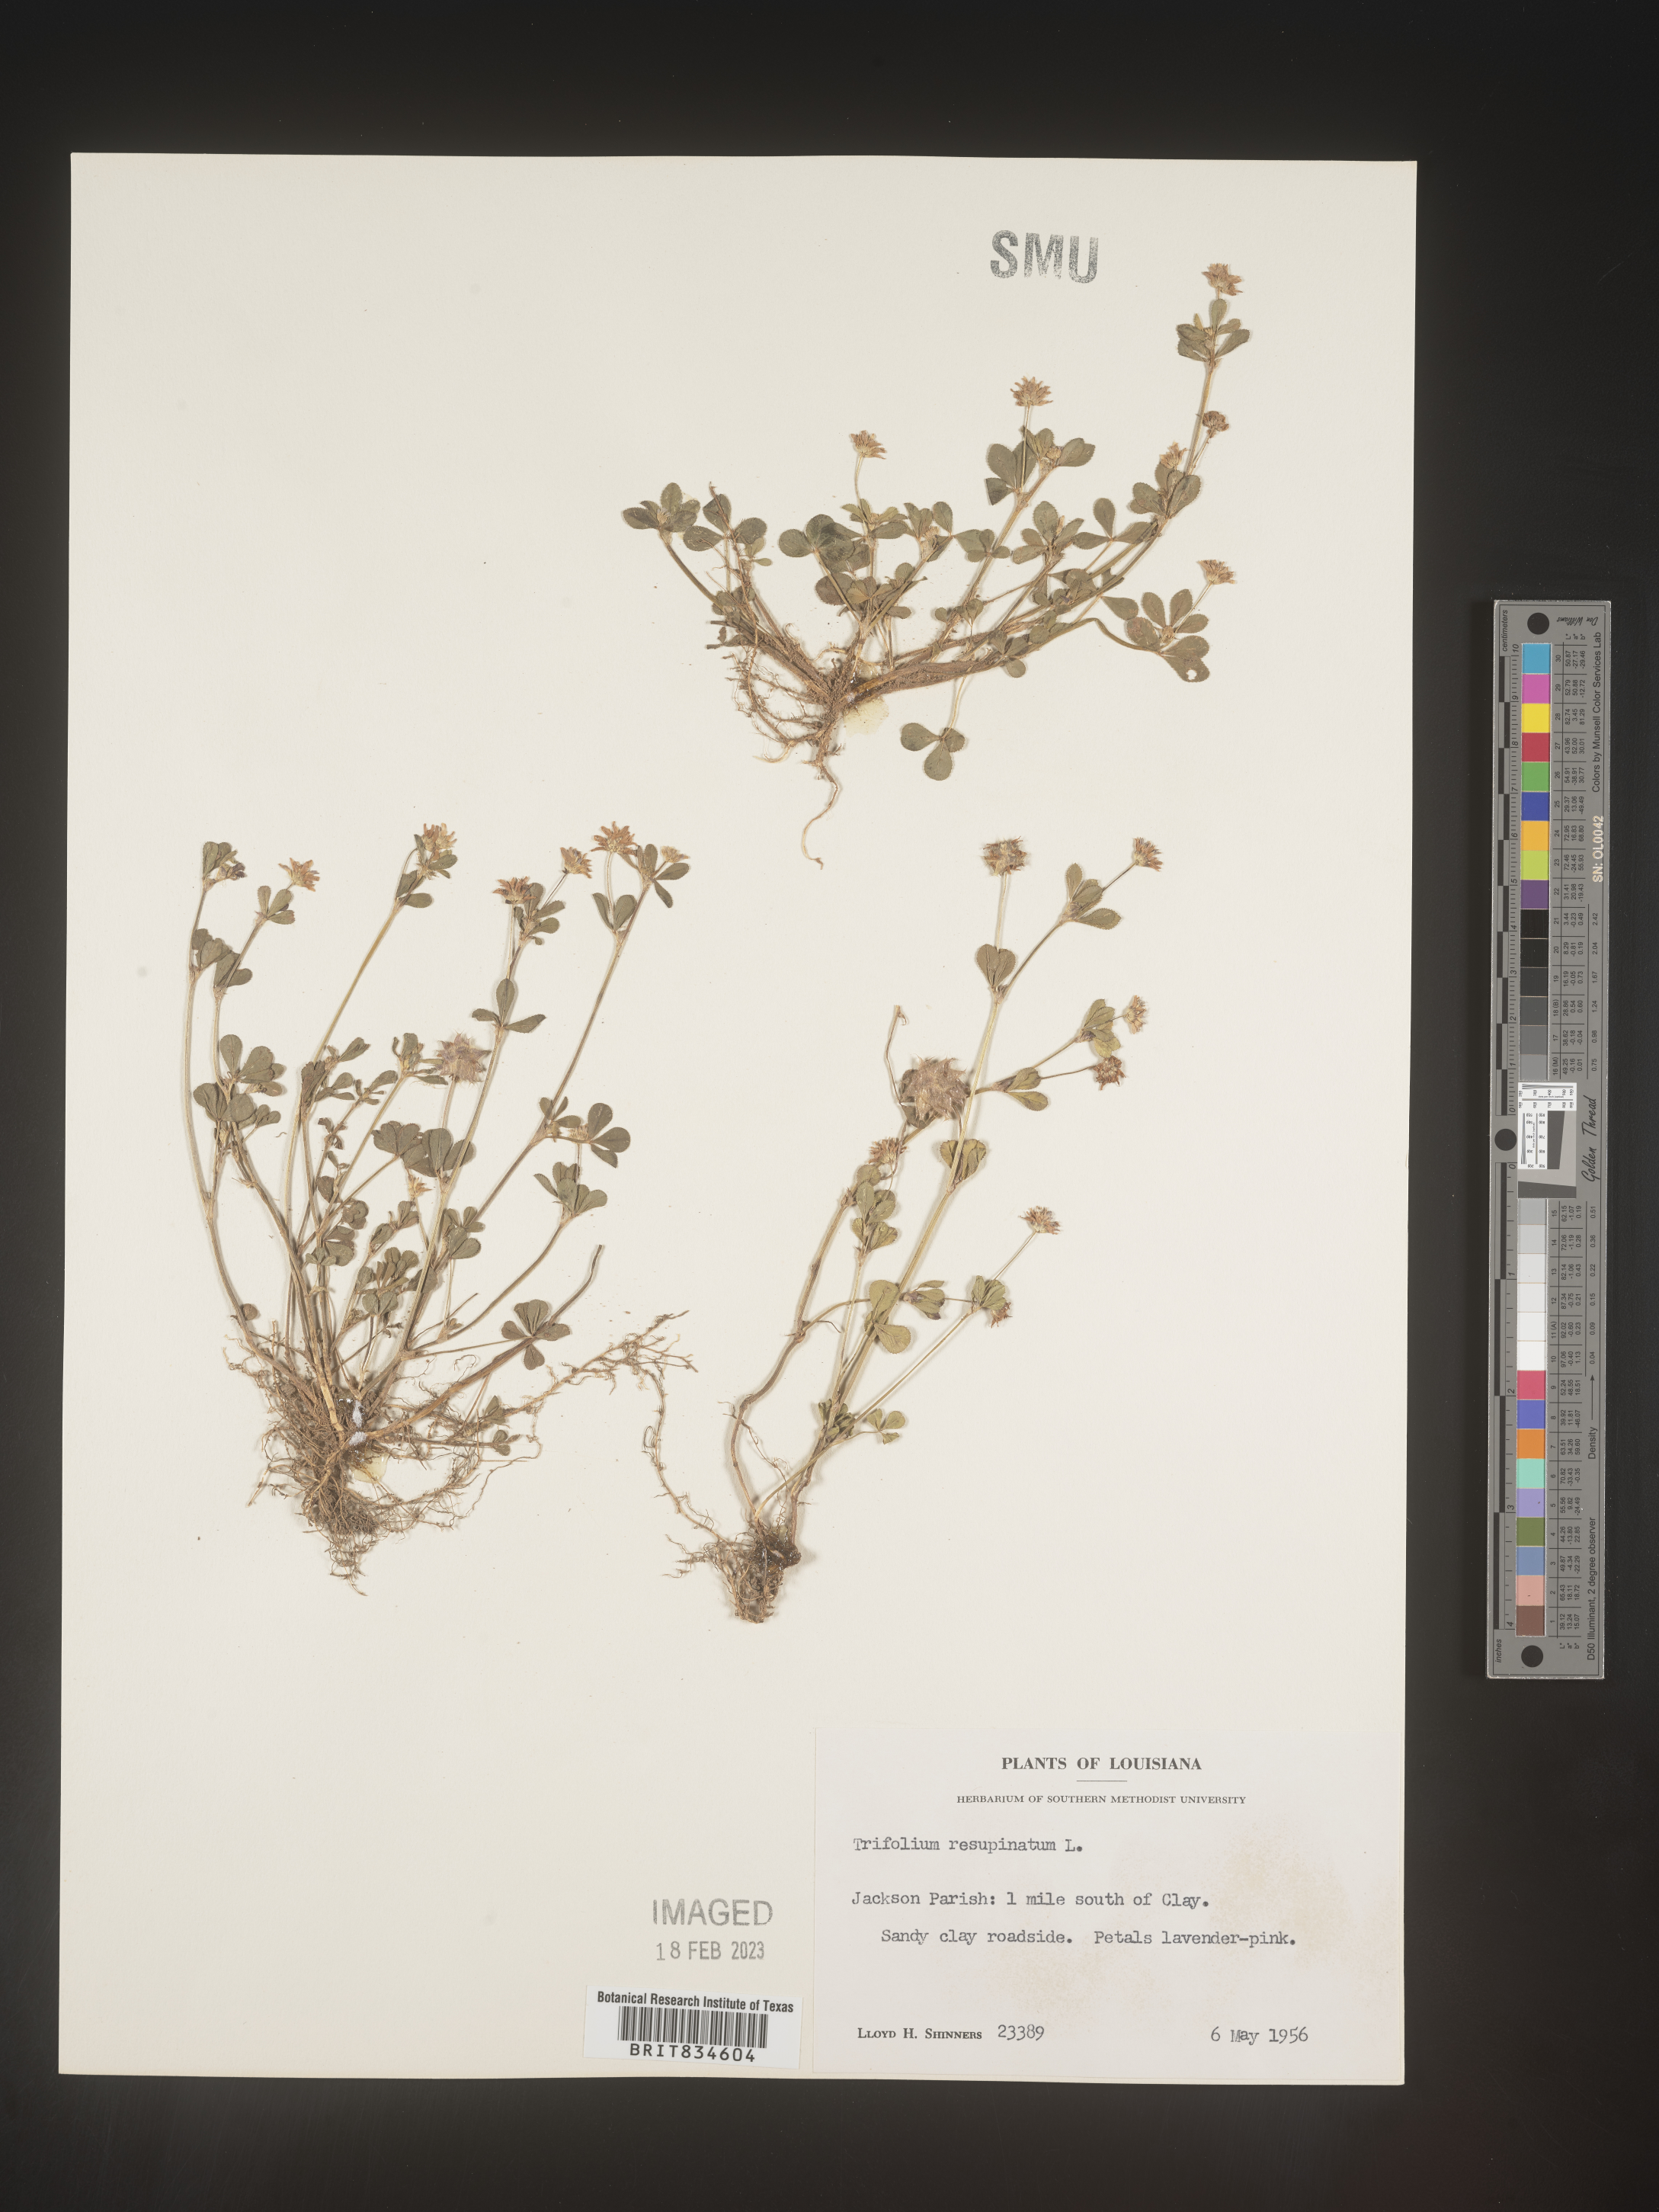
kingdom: Plantae
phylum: Tracheophyta
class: Magnoliopsida
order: Fabales
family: Fabaceae
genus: Trifolium
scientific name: Trifolium resupinatum
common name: Reversed clover
